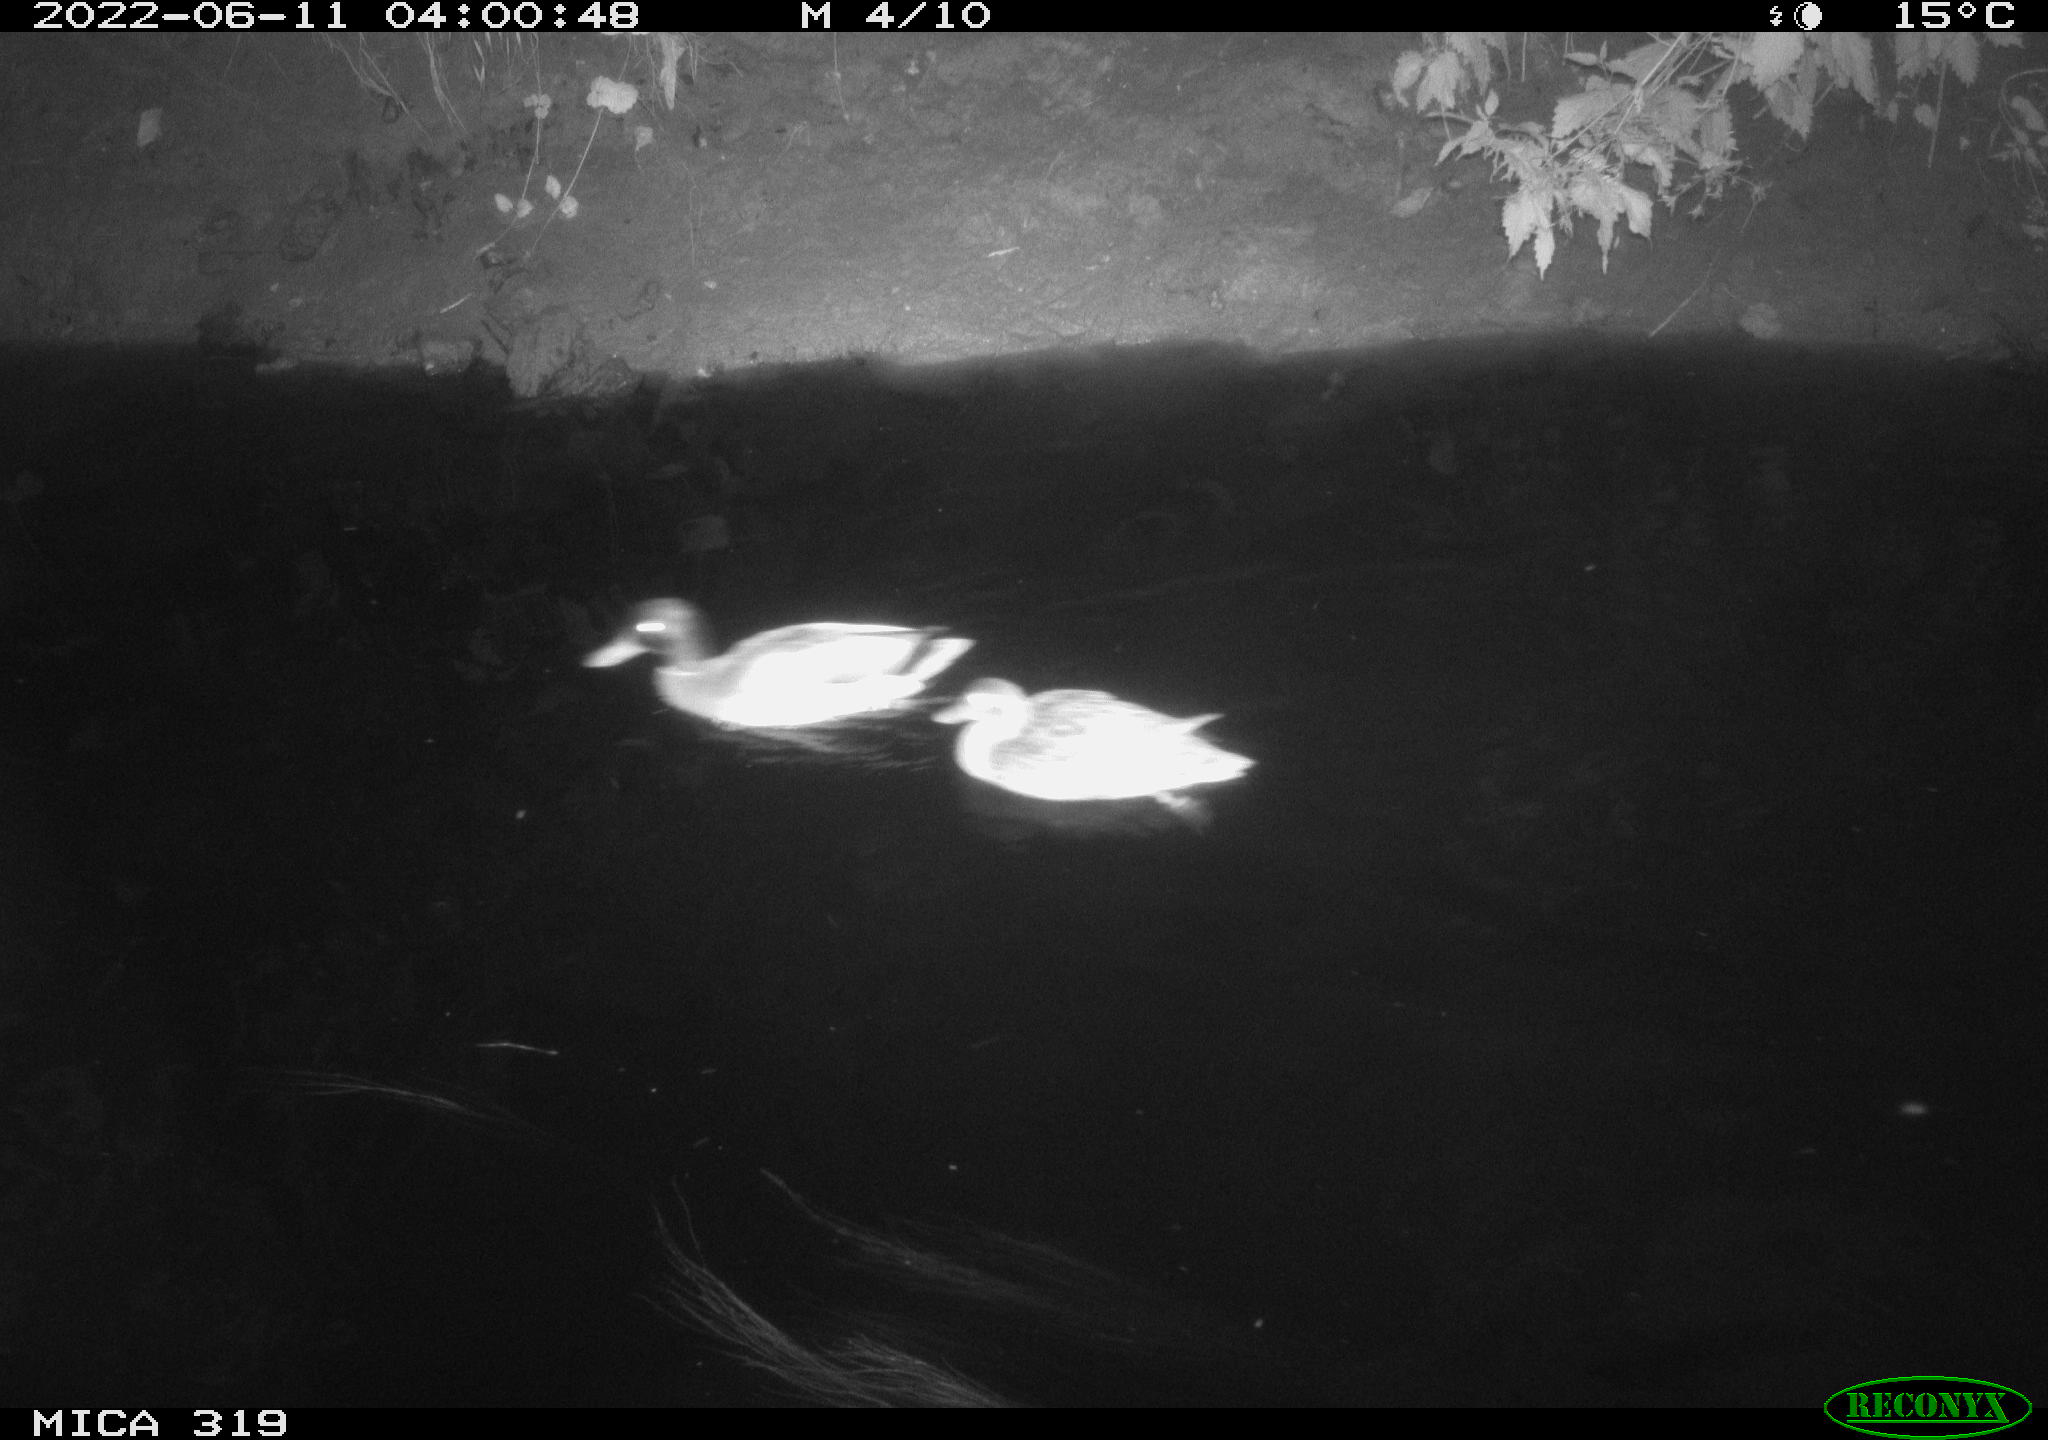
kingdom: Animalia
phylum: Chordata
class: Aves
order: Anseriformes
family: Anatidae
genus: Anas
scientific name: Anas
